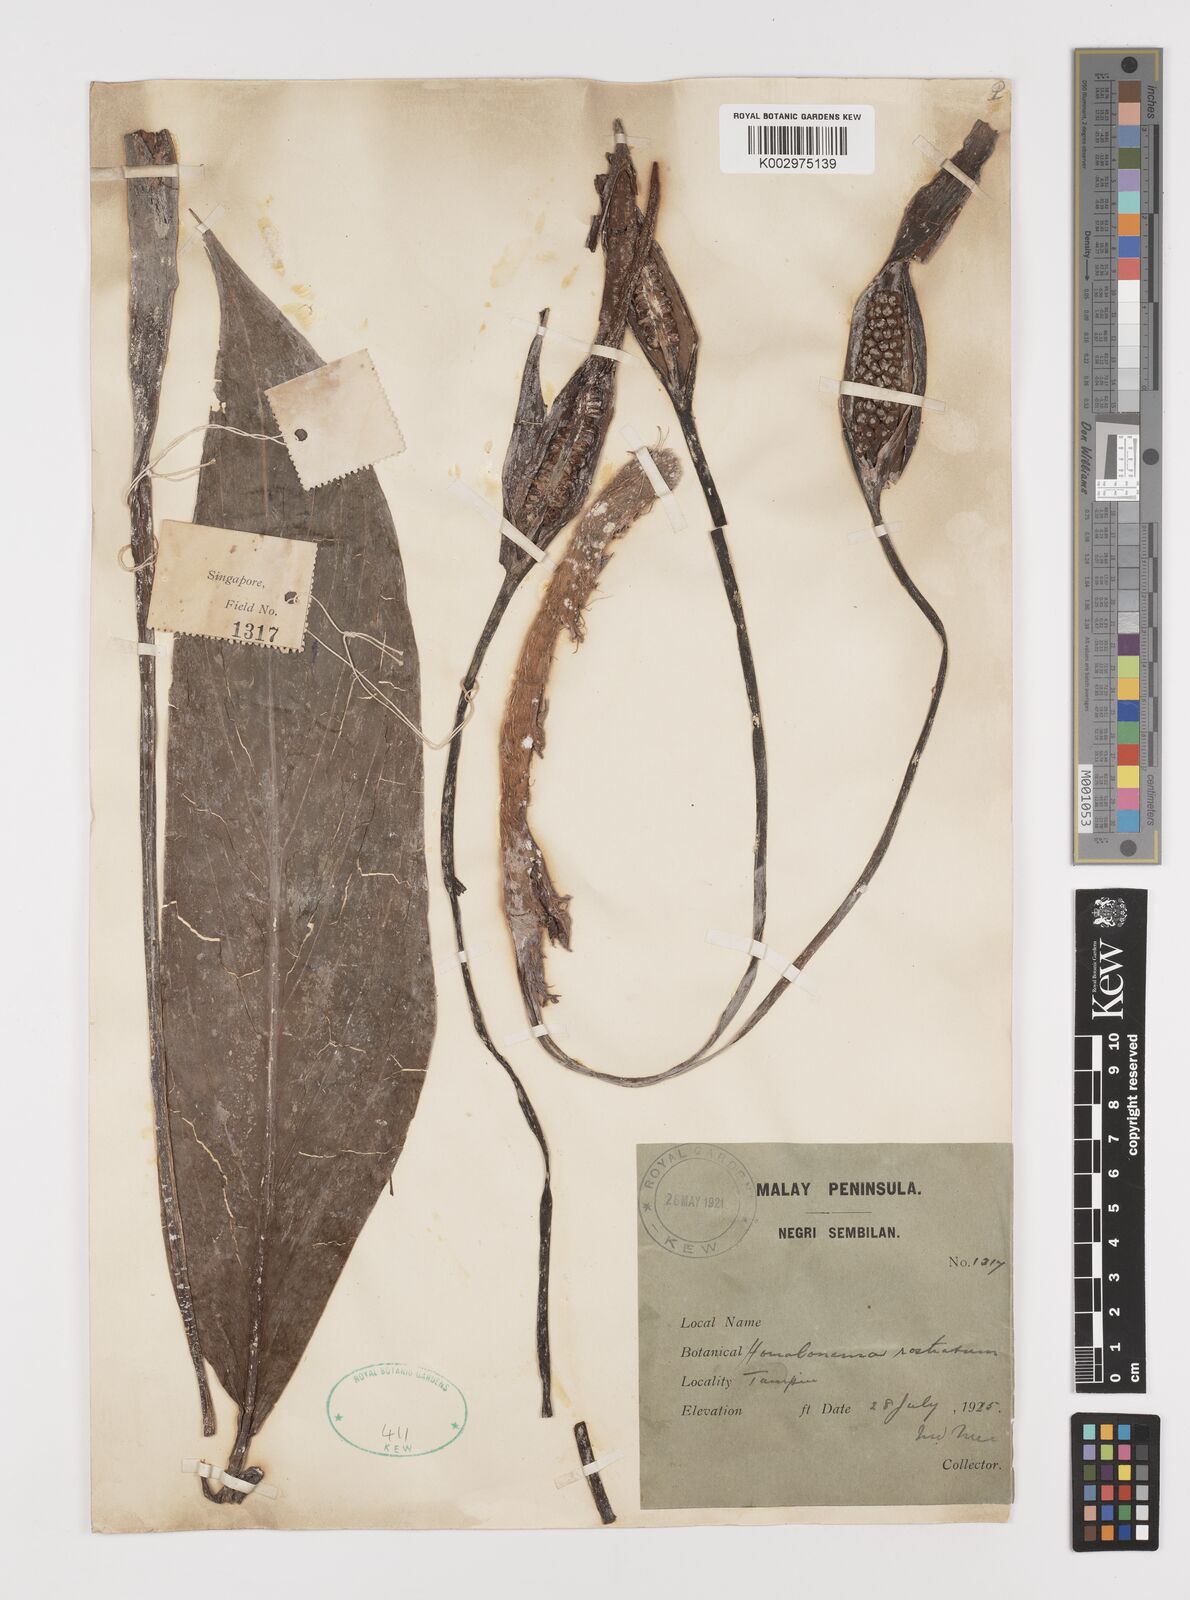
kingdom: Plantae
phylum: Tracheophyta
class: Liliopsida
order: Alismatales
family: Araceae
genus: Homalomena
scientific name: Homalomena rostrata
